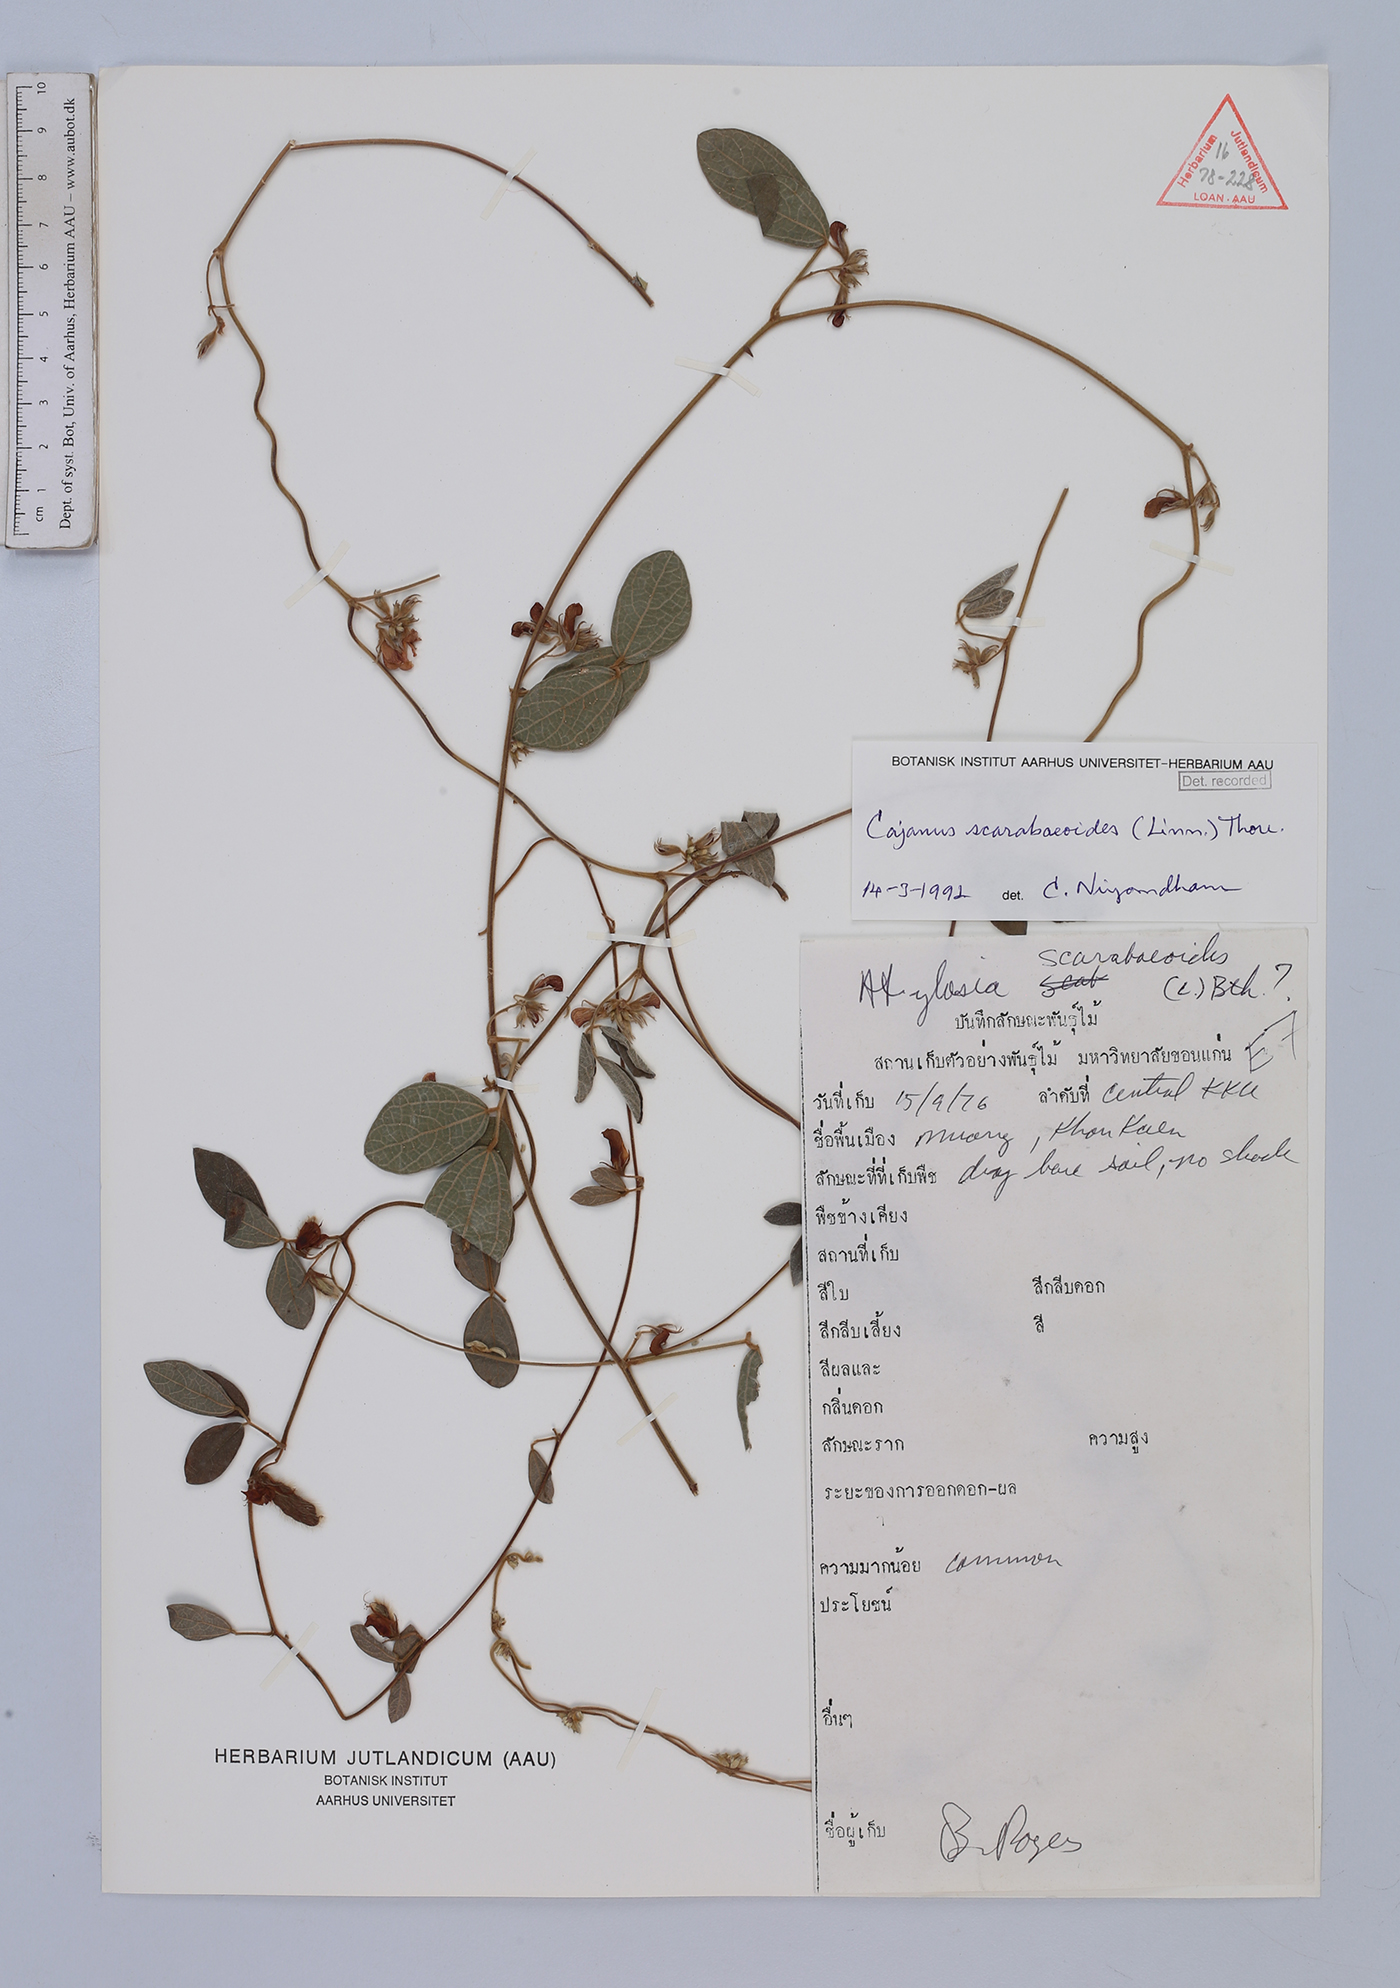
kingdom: Plantae
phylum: Tracheophyta
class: Magnoliopsida
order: Fabales
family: Fabaceae
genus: Cajanus
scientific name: Cajanus scarabaeoides
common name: Showy pigeonpea
